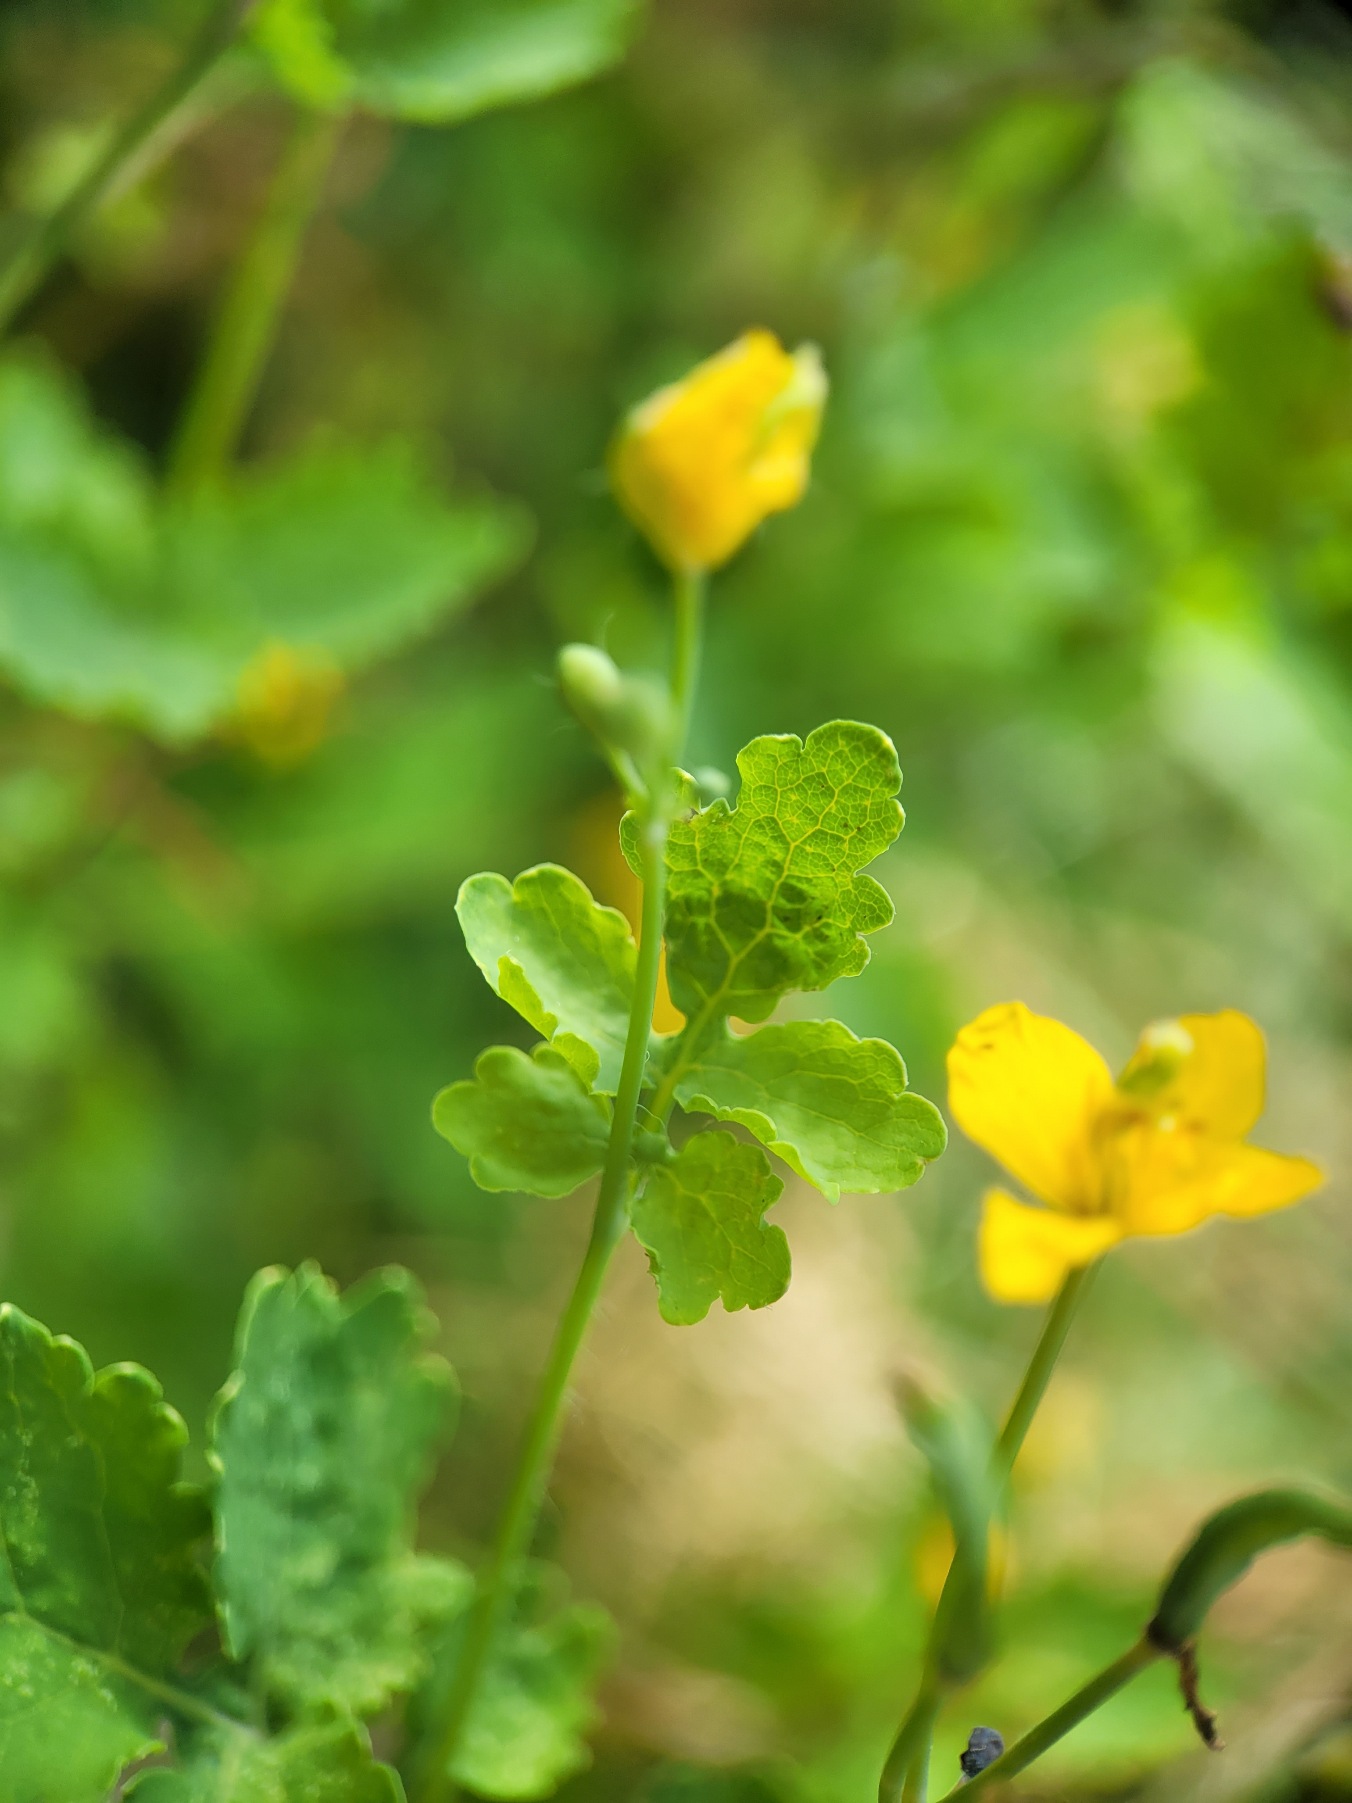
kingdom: Plantae
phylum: Tracheophyta
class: Magnoliopsida
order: Ranunculales
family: Papaveraceae
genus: Chelidonium
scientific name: Chelidonium majus
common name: Svaleurt
